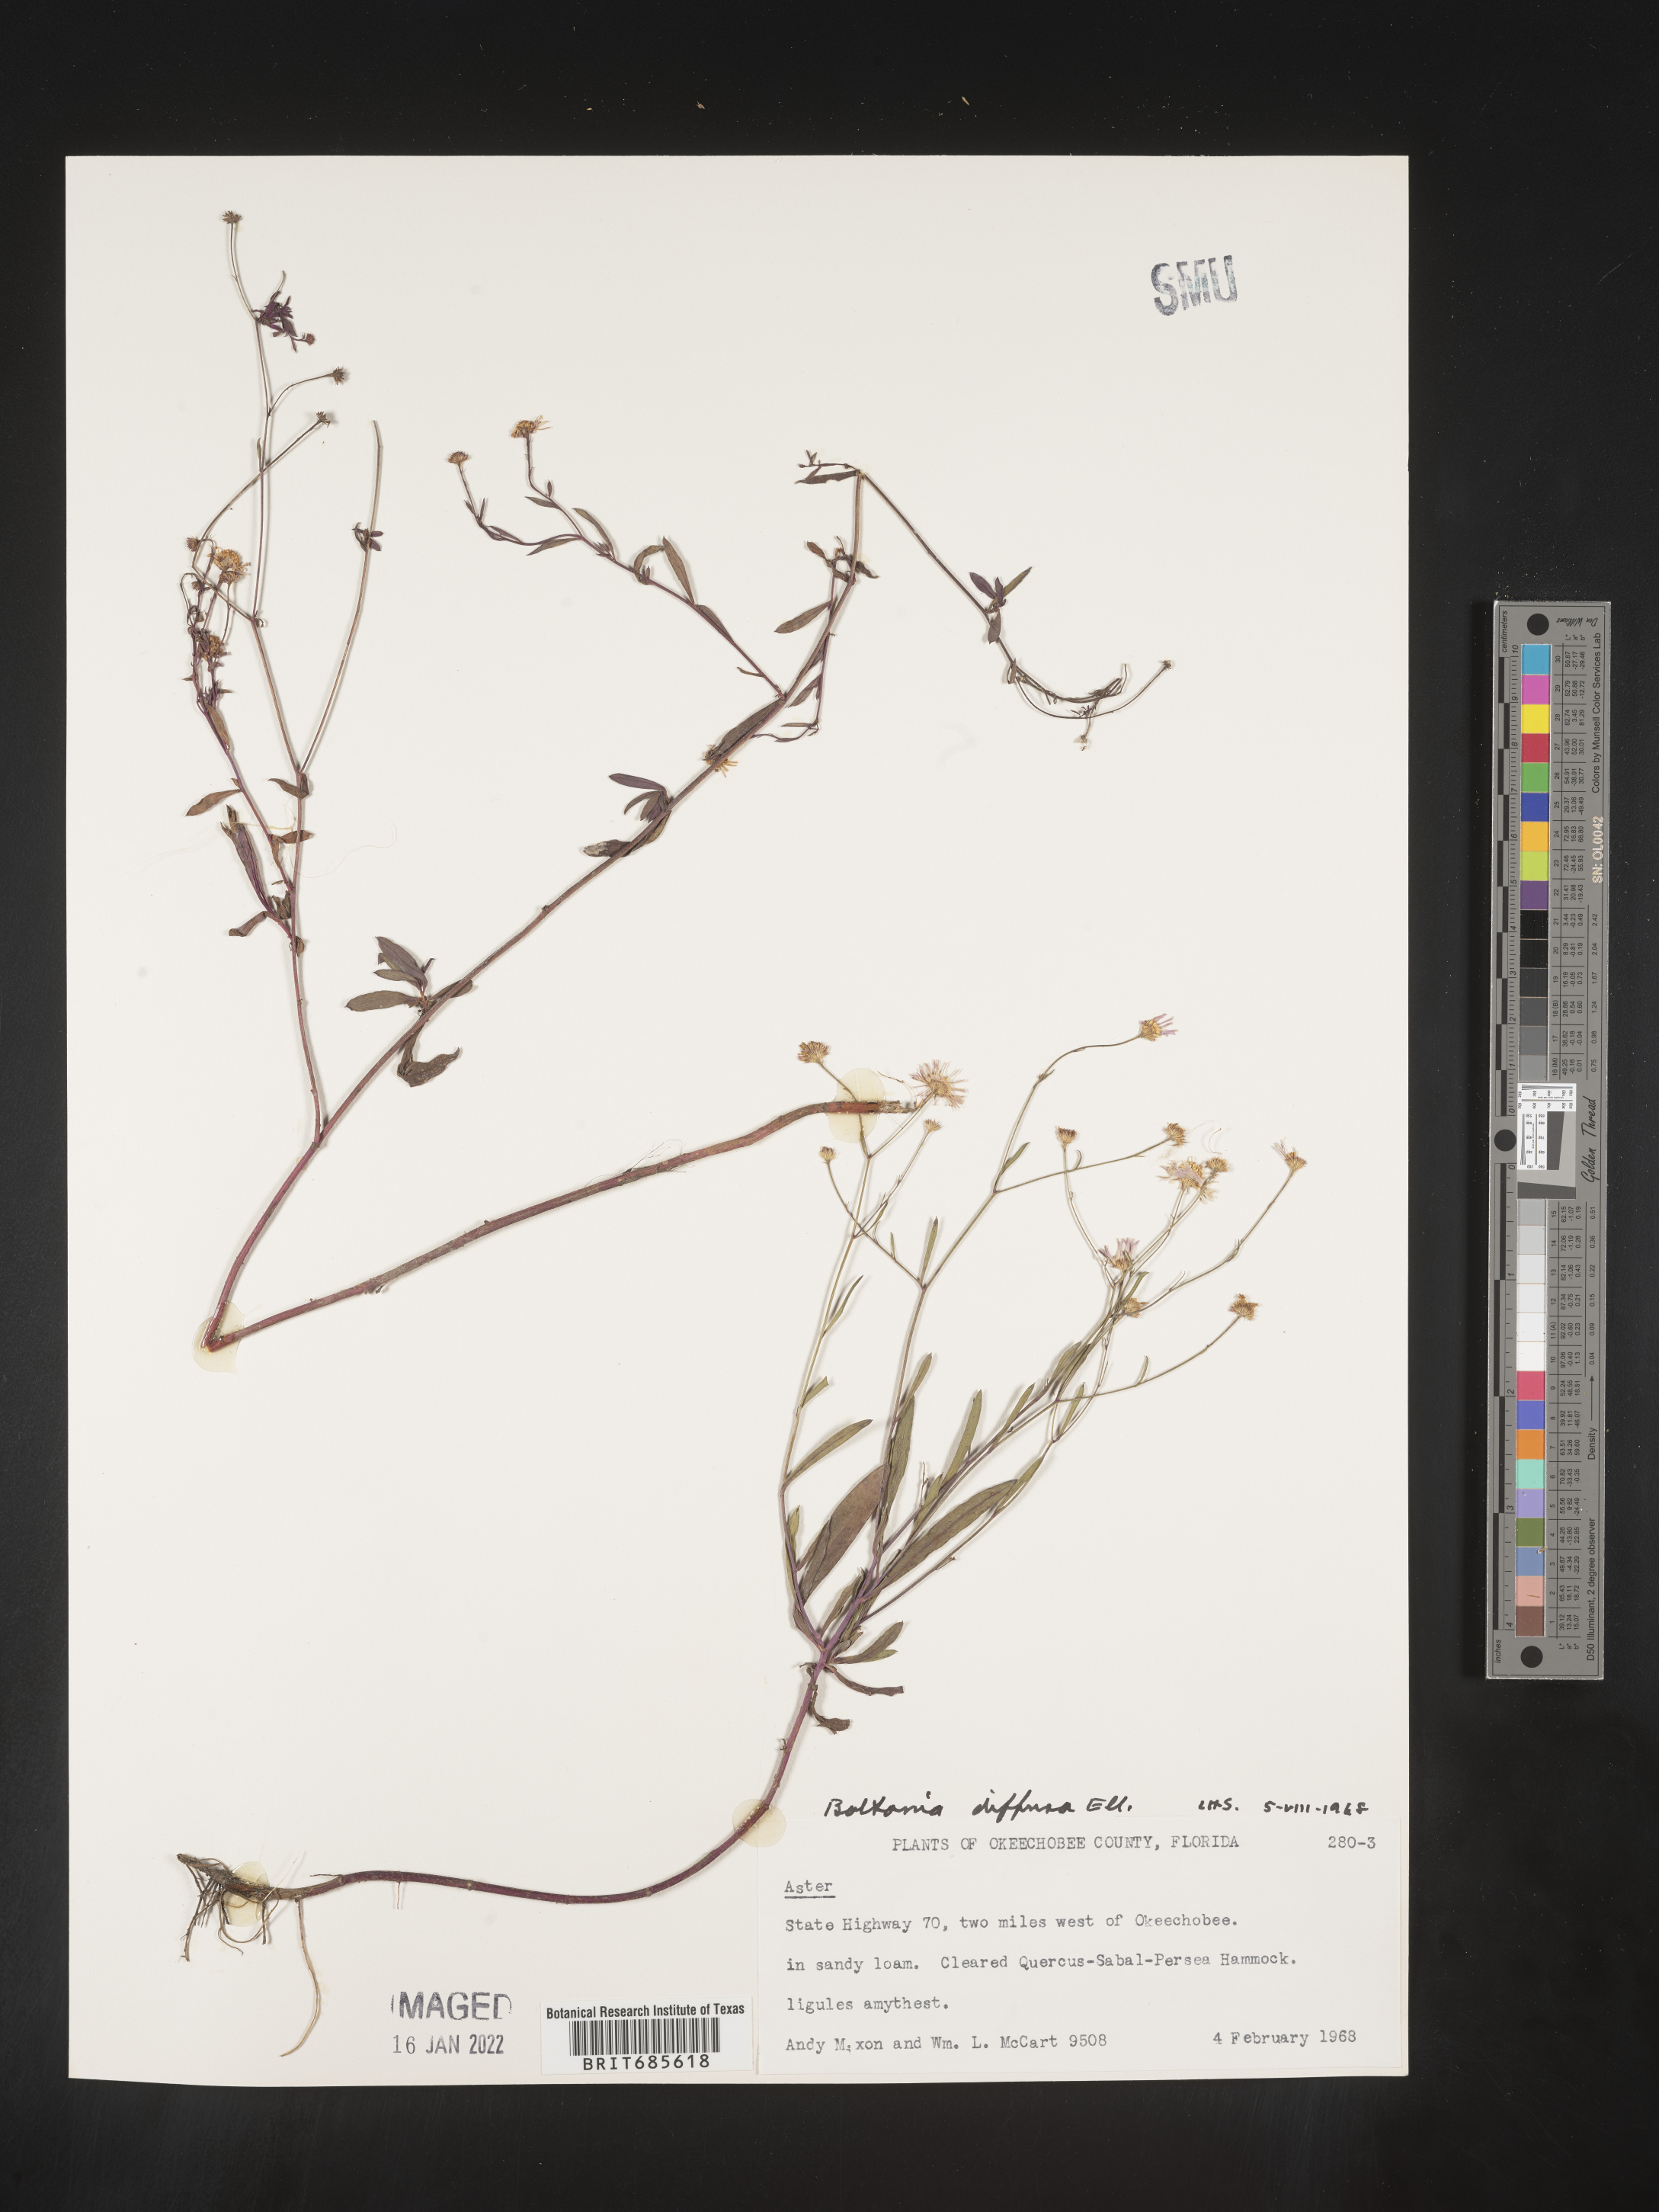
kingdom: Plantae
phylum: Tracheophyta
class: Magnoliopsida
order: Asterales
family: Asteraceae
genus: Boltonia
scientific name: Boltonia diffusa
